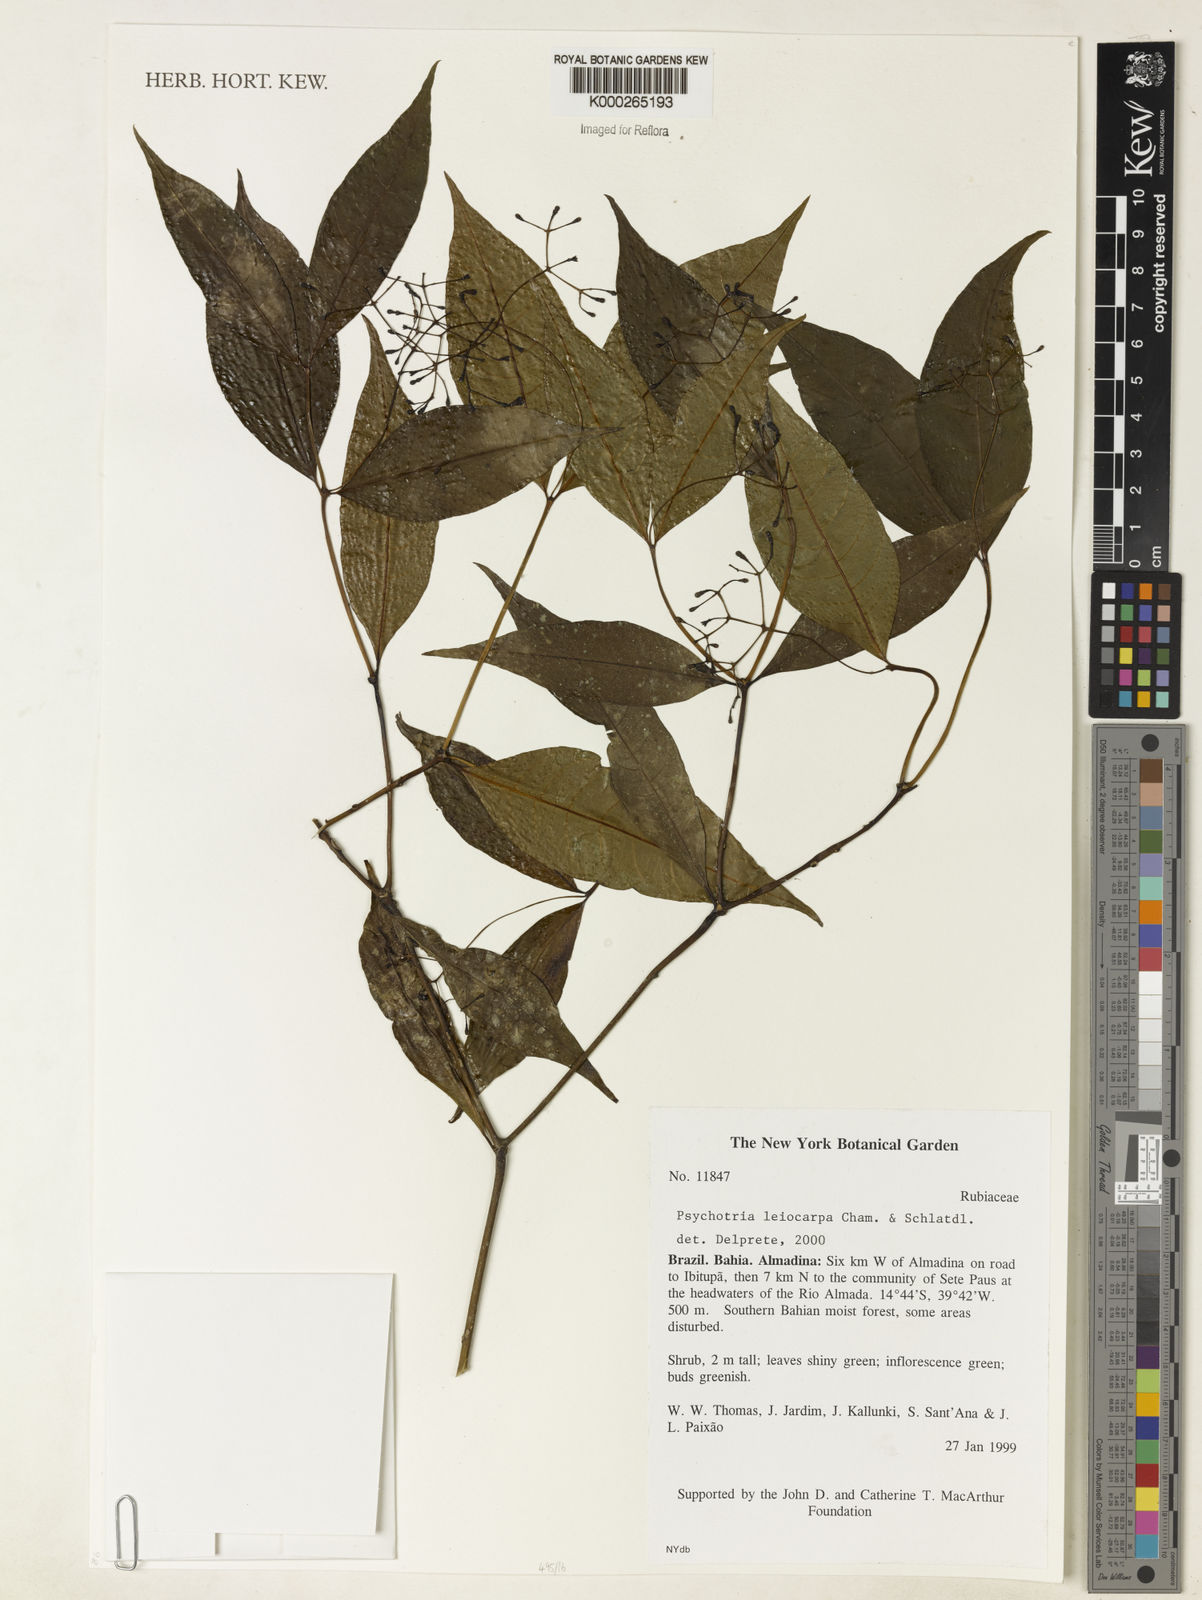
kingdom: Plantae
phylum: Tracheophyta
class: Magnoliopsida
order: Gentianales
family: Rubiaceae
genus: Psychotria
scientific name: Psychotria leiocarpa
